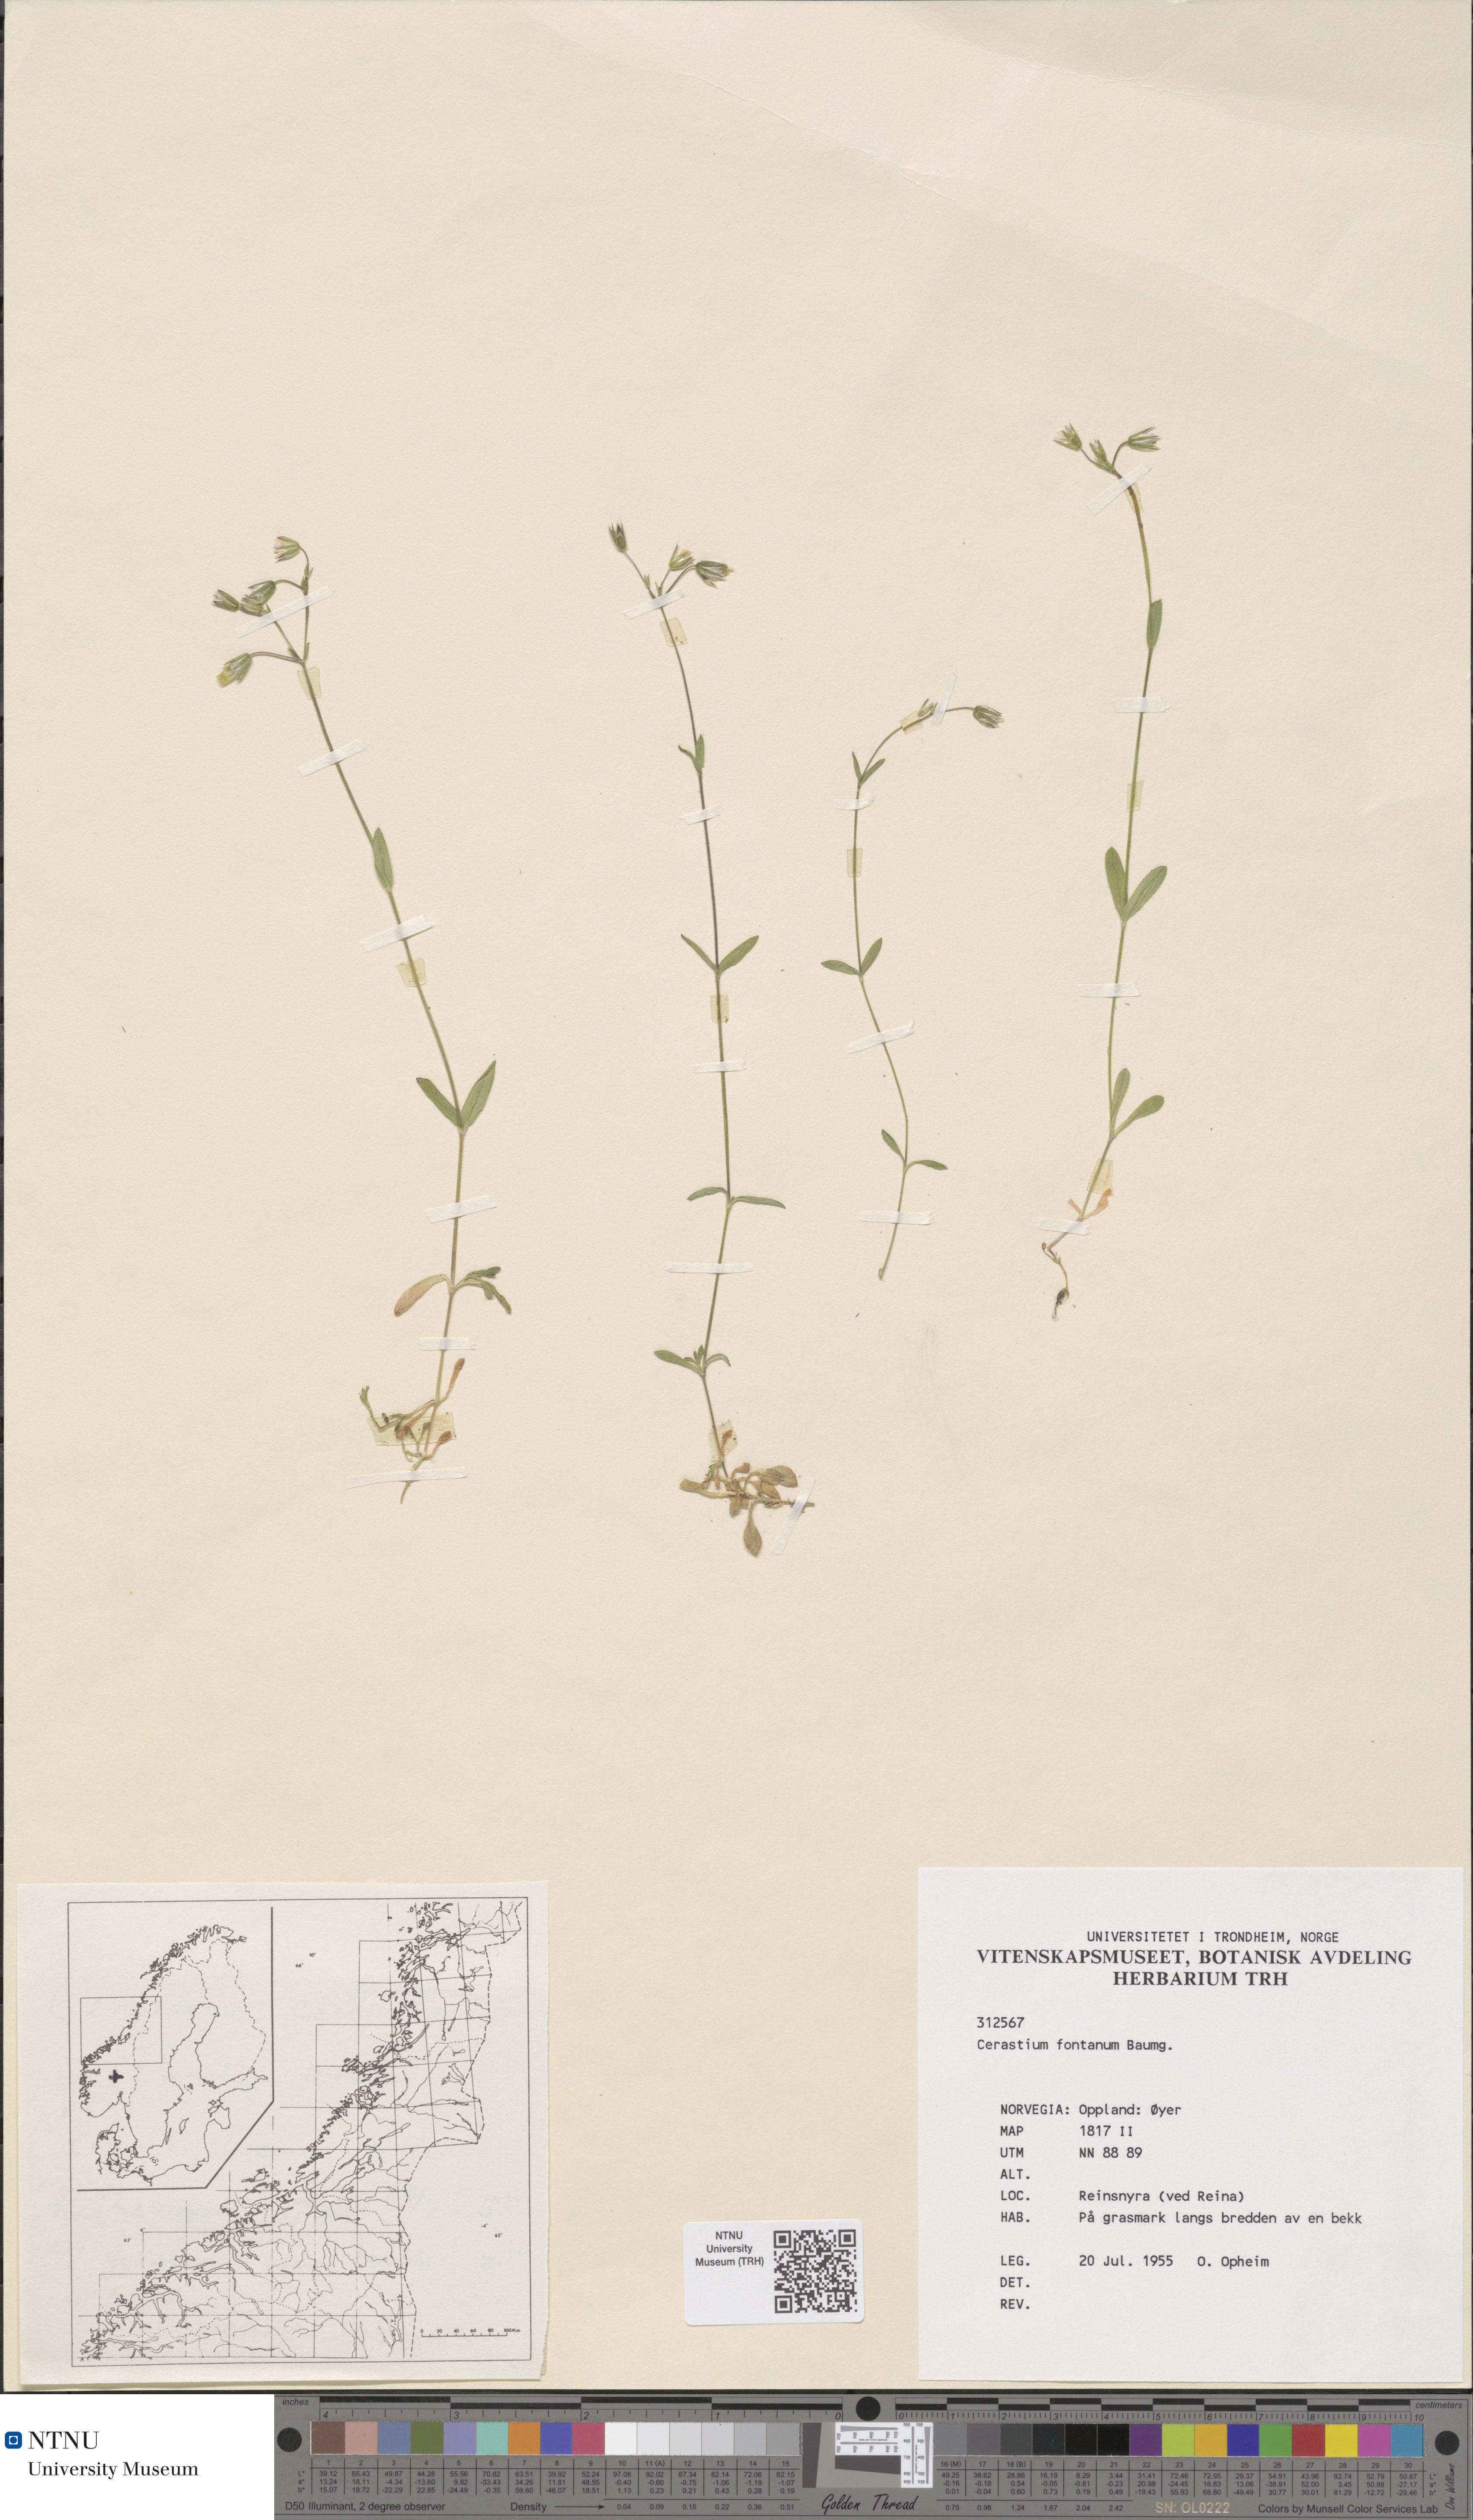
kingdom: Plantae
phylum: Tracheophyta
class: Magnoliopsida
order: Caryophyllales
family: Caryophyllaceae
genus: Cerastium
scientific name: Cerastium fontanum
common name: Common mouse-ear
